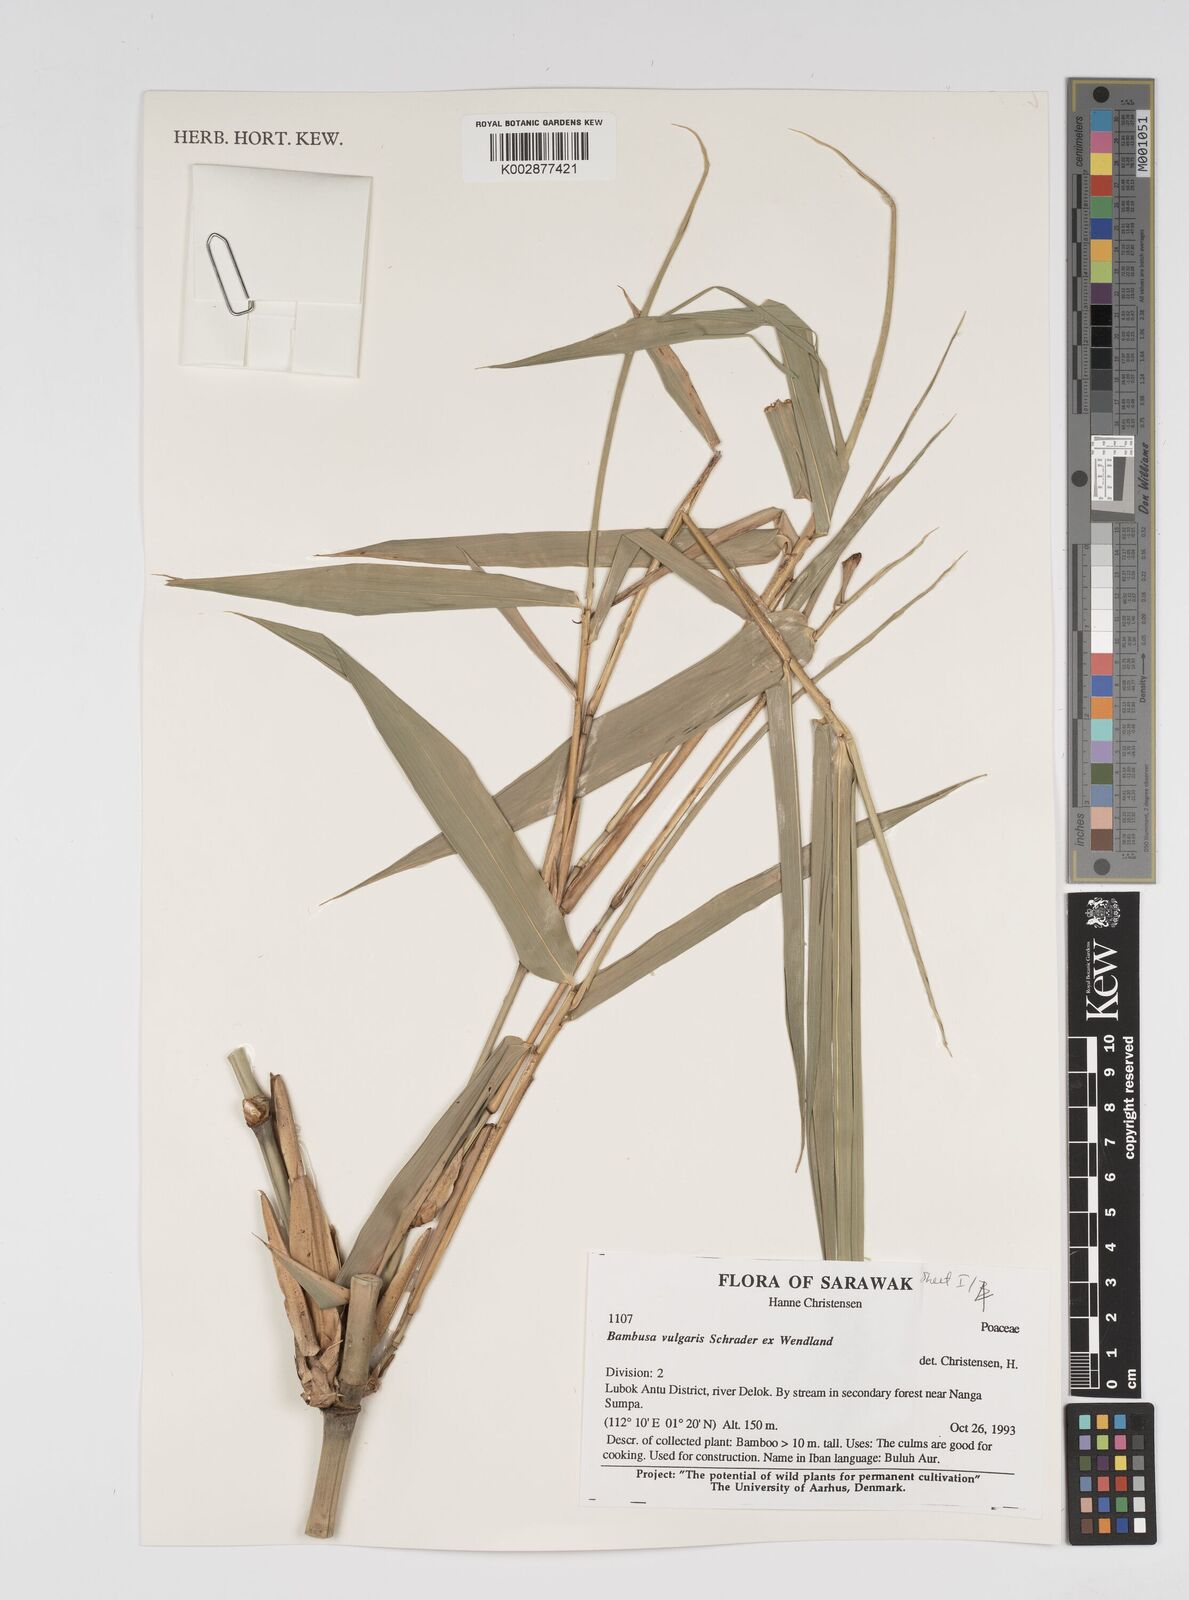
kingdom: Plantae
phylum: Tracheophyta
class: Liliopsida
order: Poales
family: Poaceae
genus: Bambusa
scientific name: Bambusa vulgaris
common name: Common bamboo
